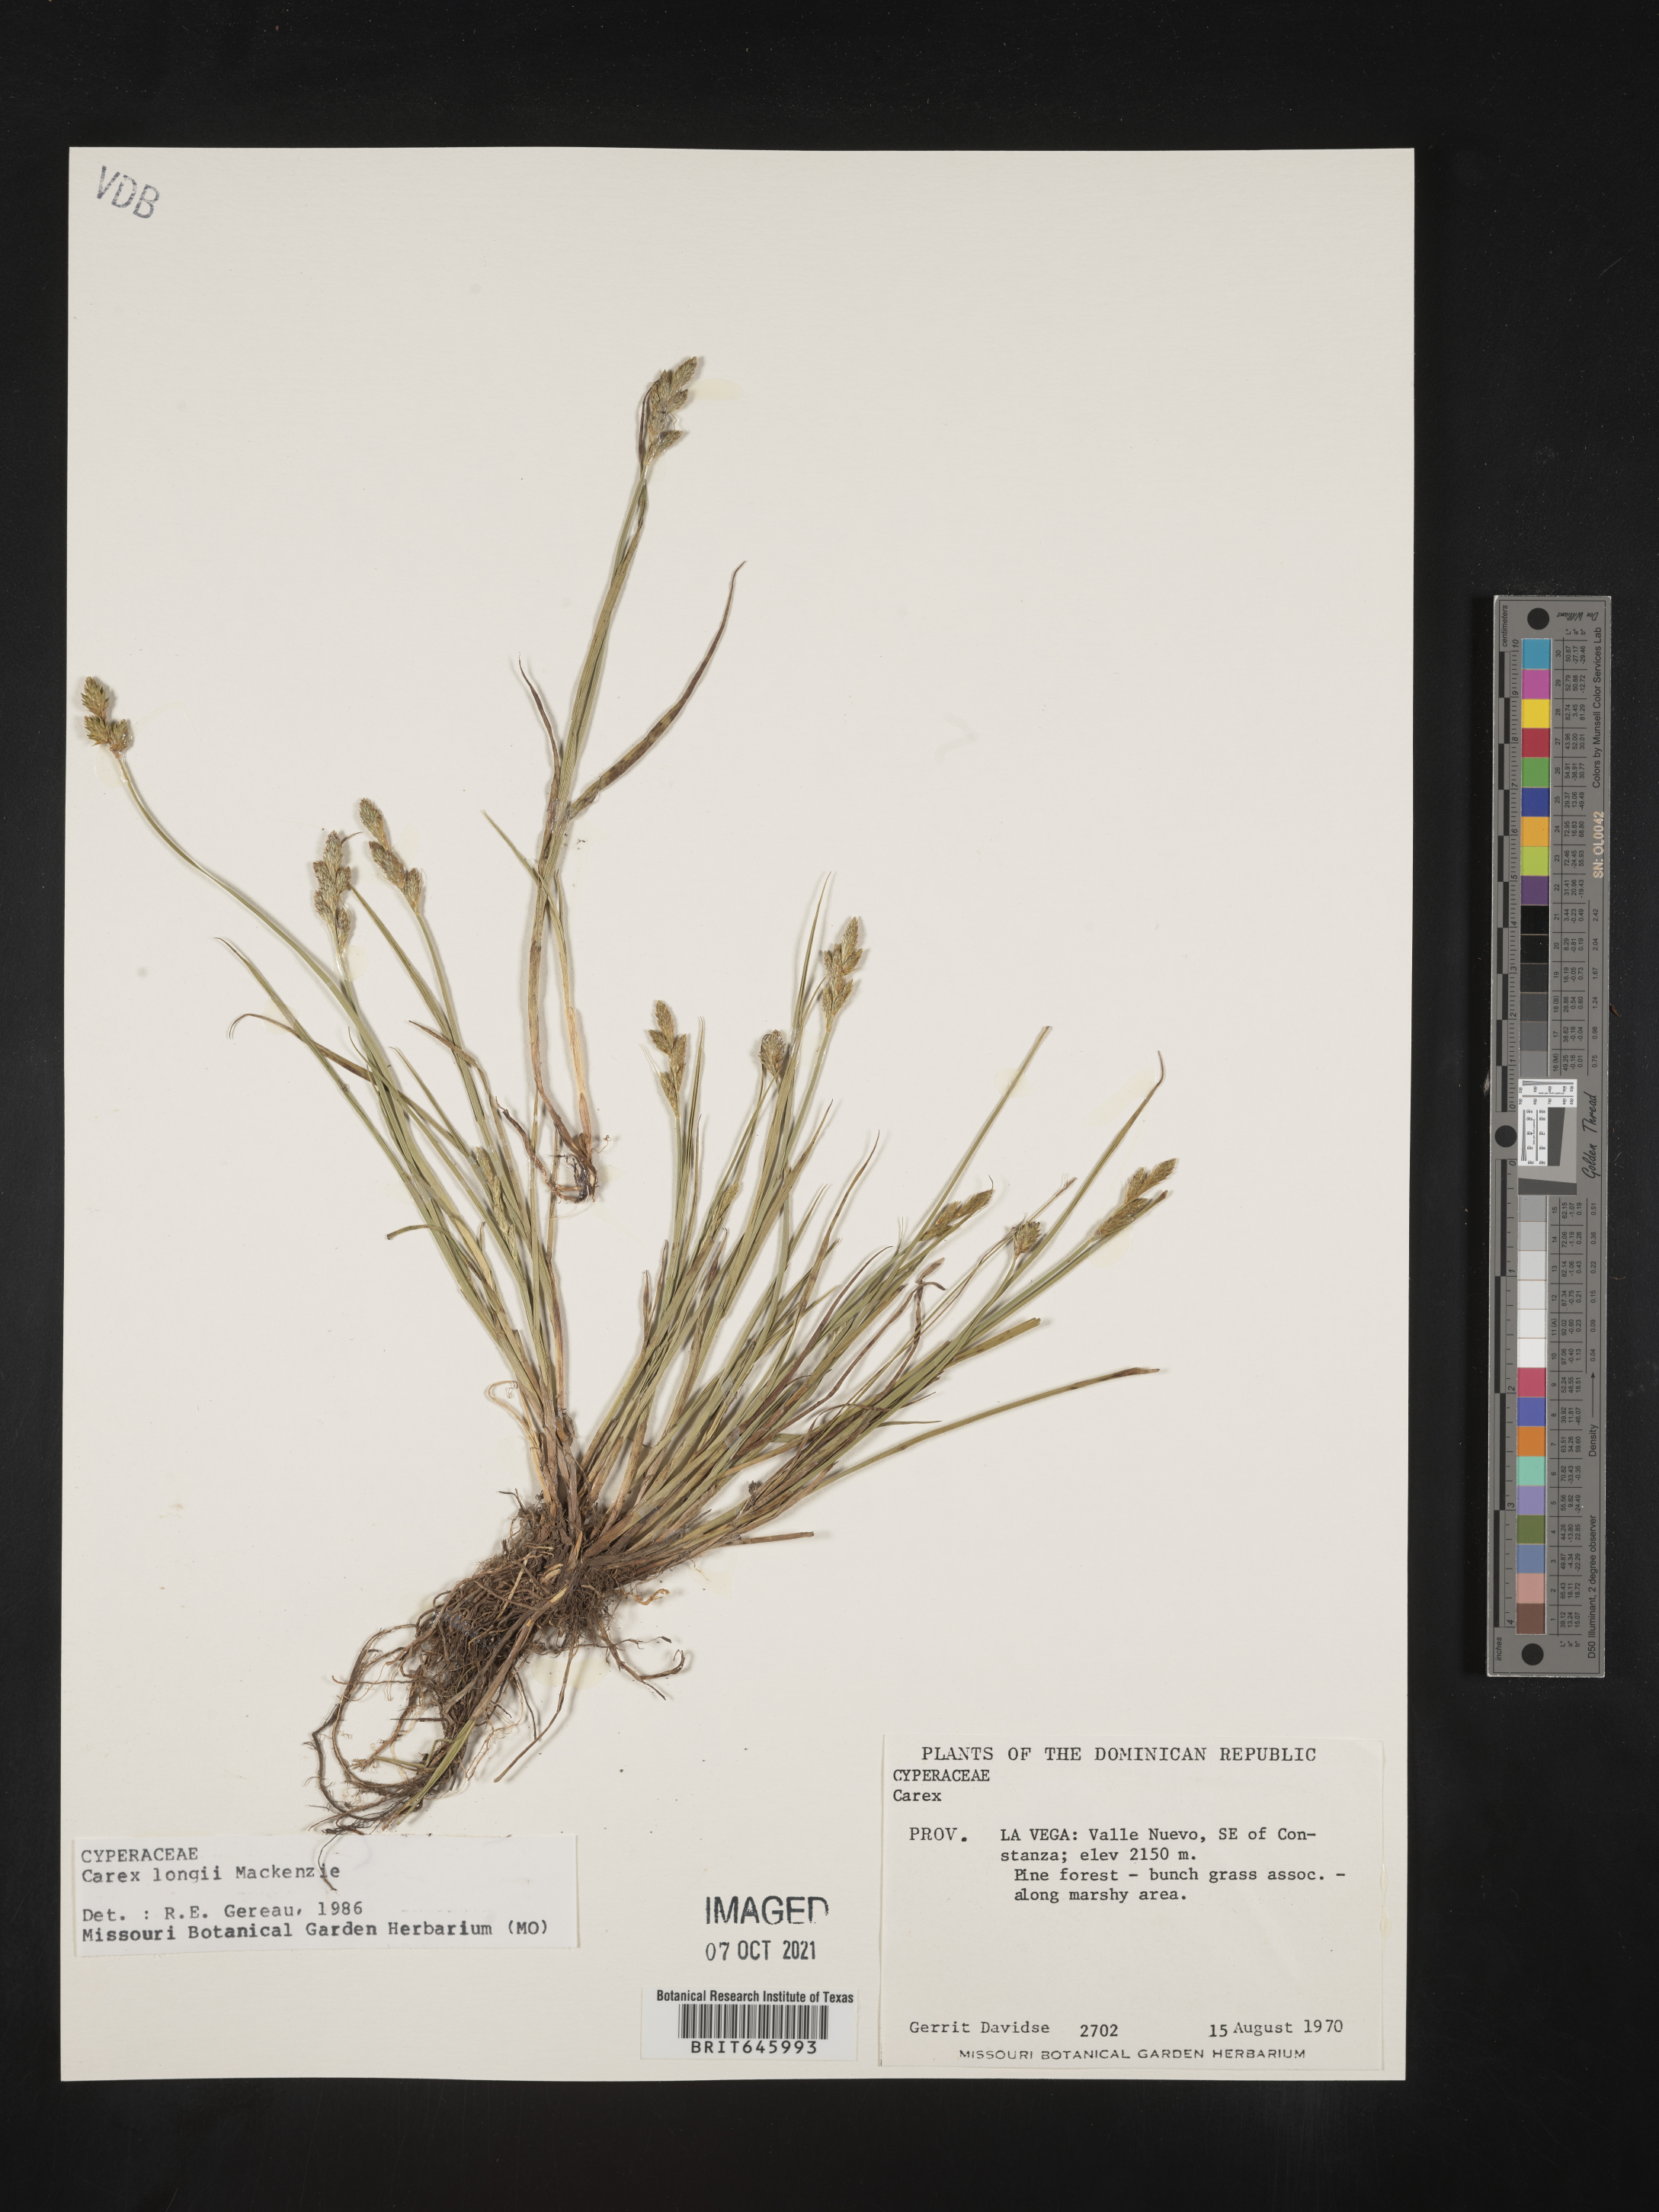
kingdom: Plantae
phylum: Tracheophyta
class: Liliopsida
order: Poales
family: Cyperaceae
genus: Carex
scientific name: Carex longii
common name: Long's sedge
